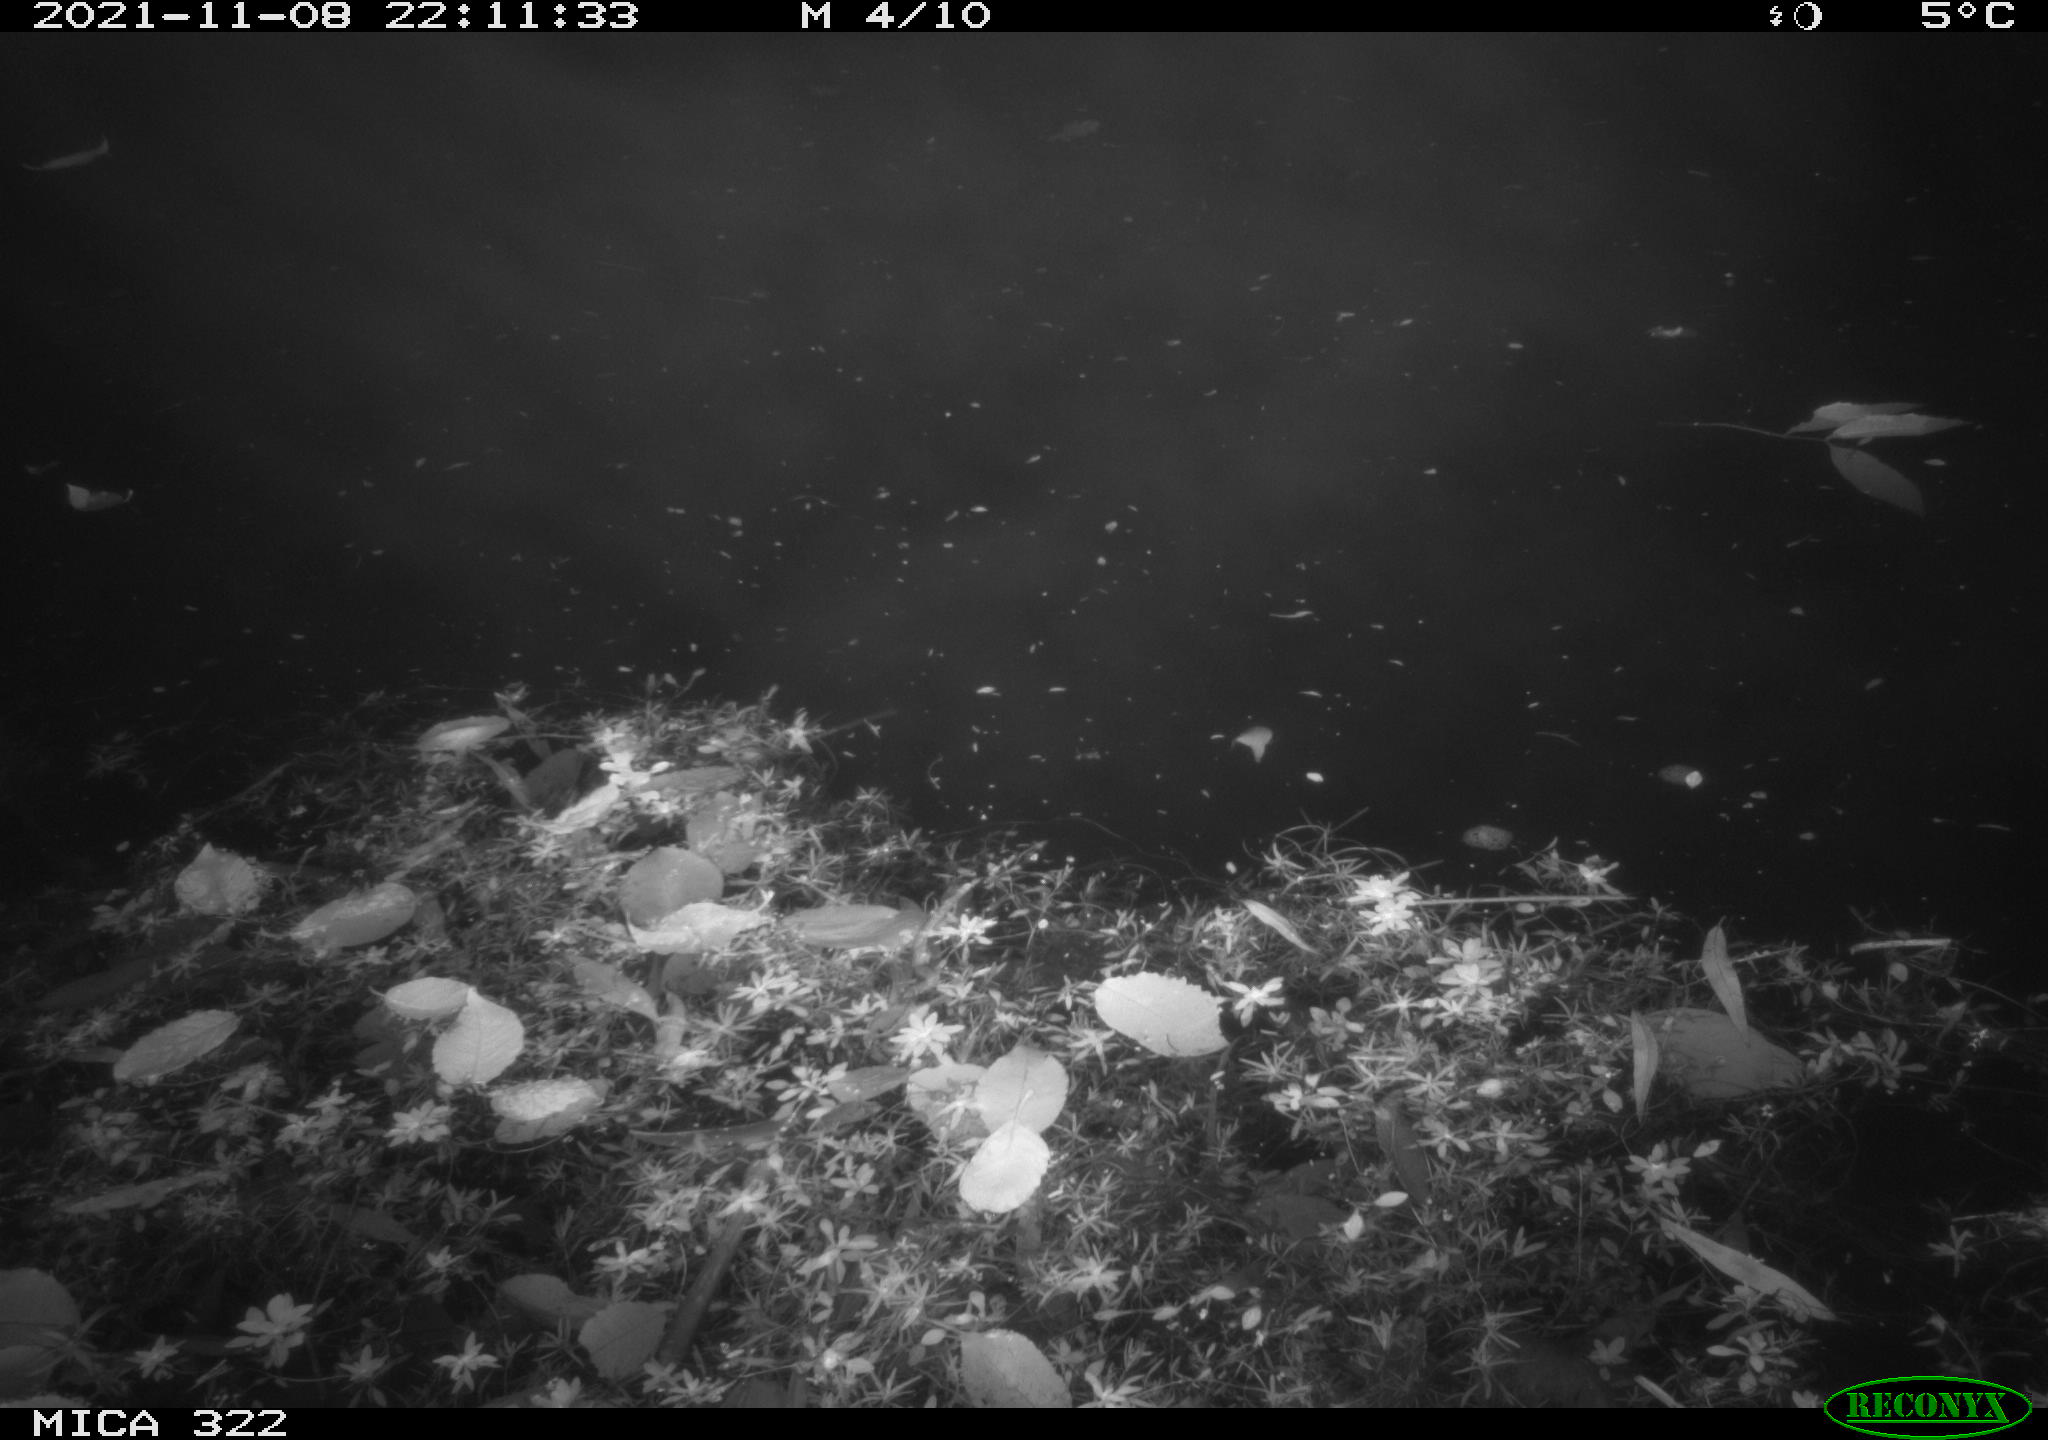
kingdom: Animalia
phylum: Chordata
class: Mammalia
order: Rodentia
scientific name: Rodentia
